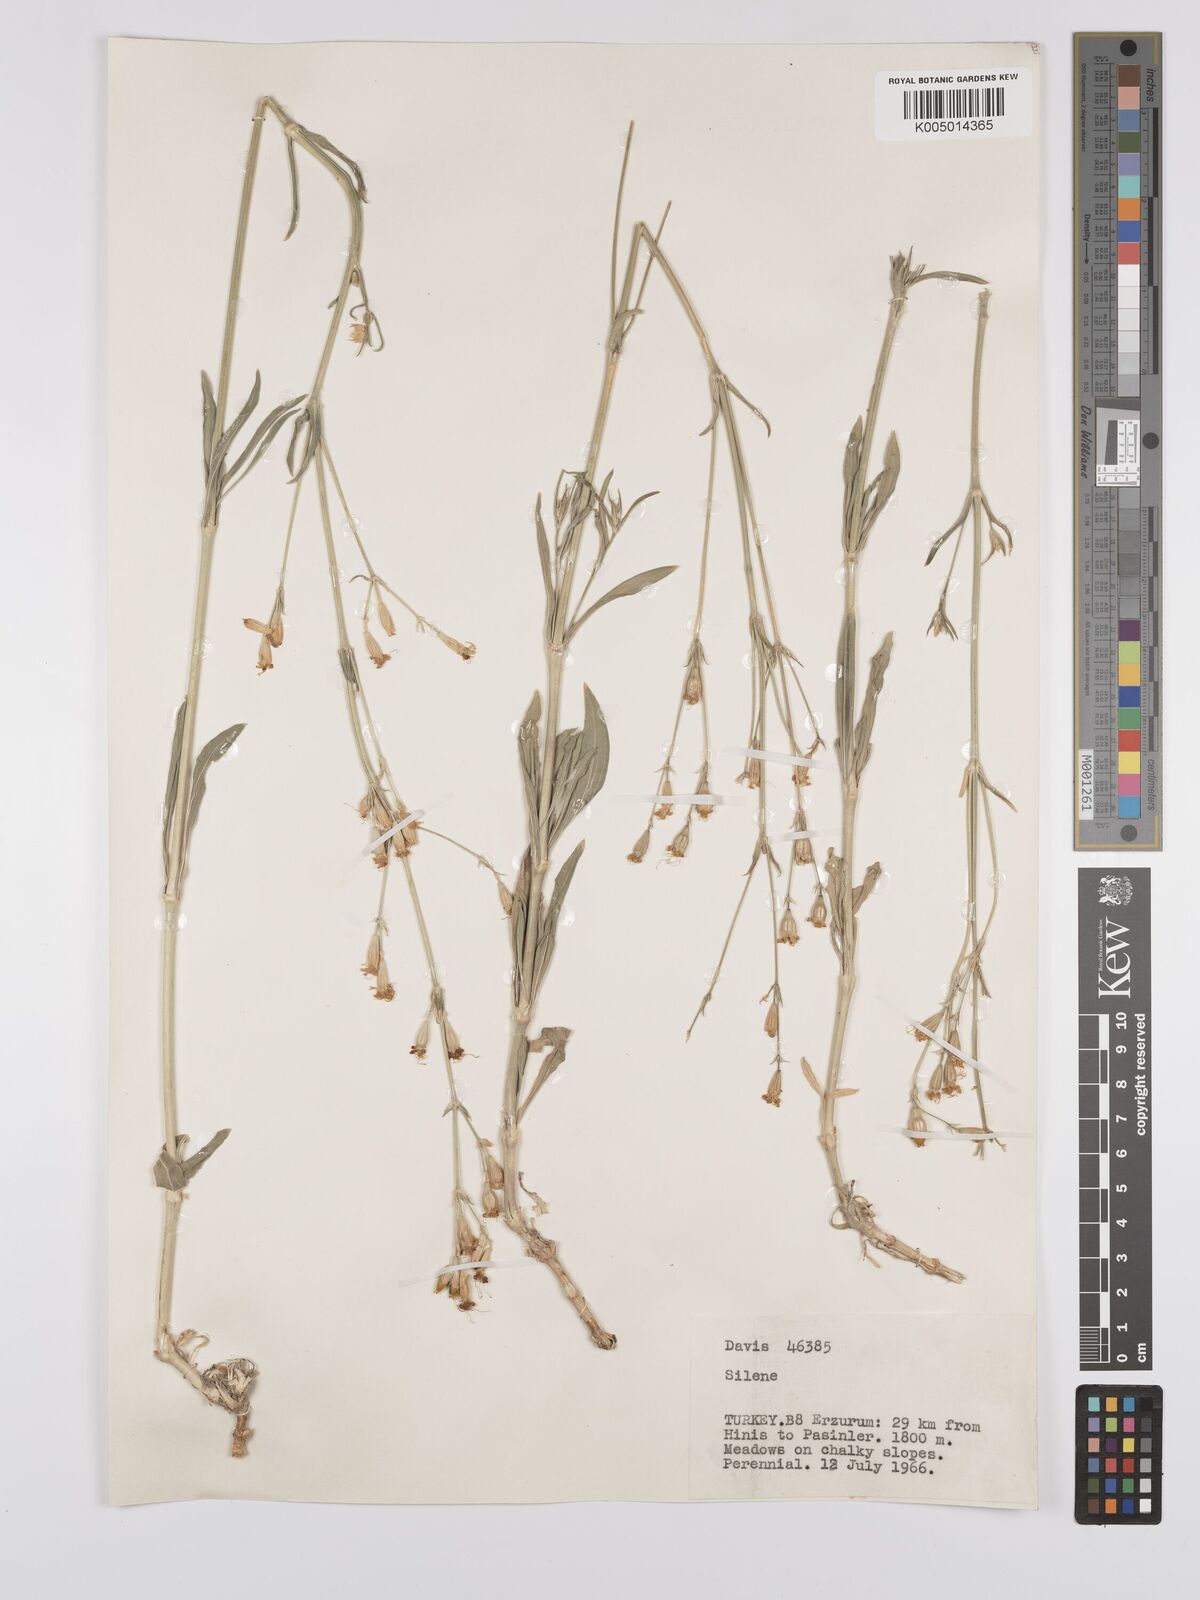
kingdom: Plantae
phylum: Tracheophyta
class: Magnoliopsida
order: Caryophyllales
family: Caryophyllaceae
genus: Silene
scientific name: Silene
